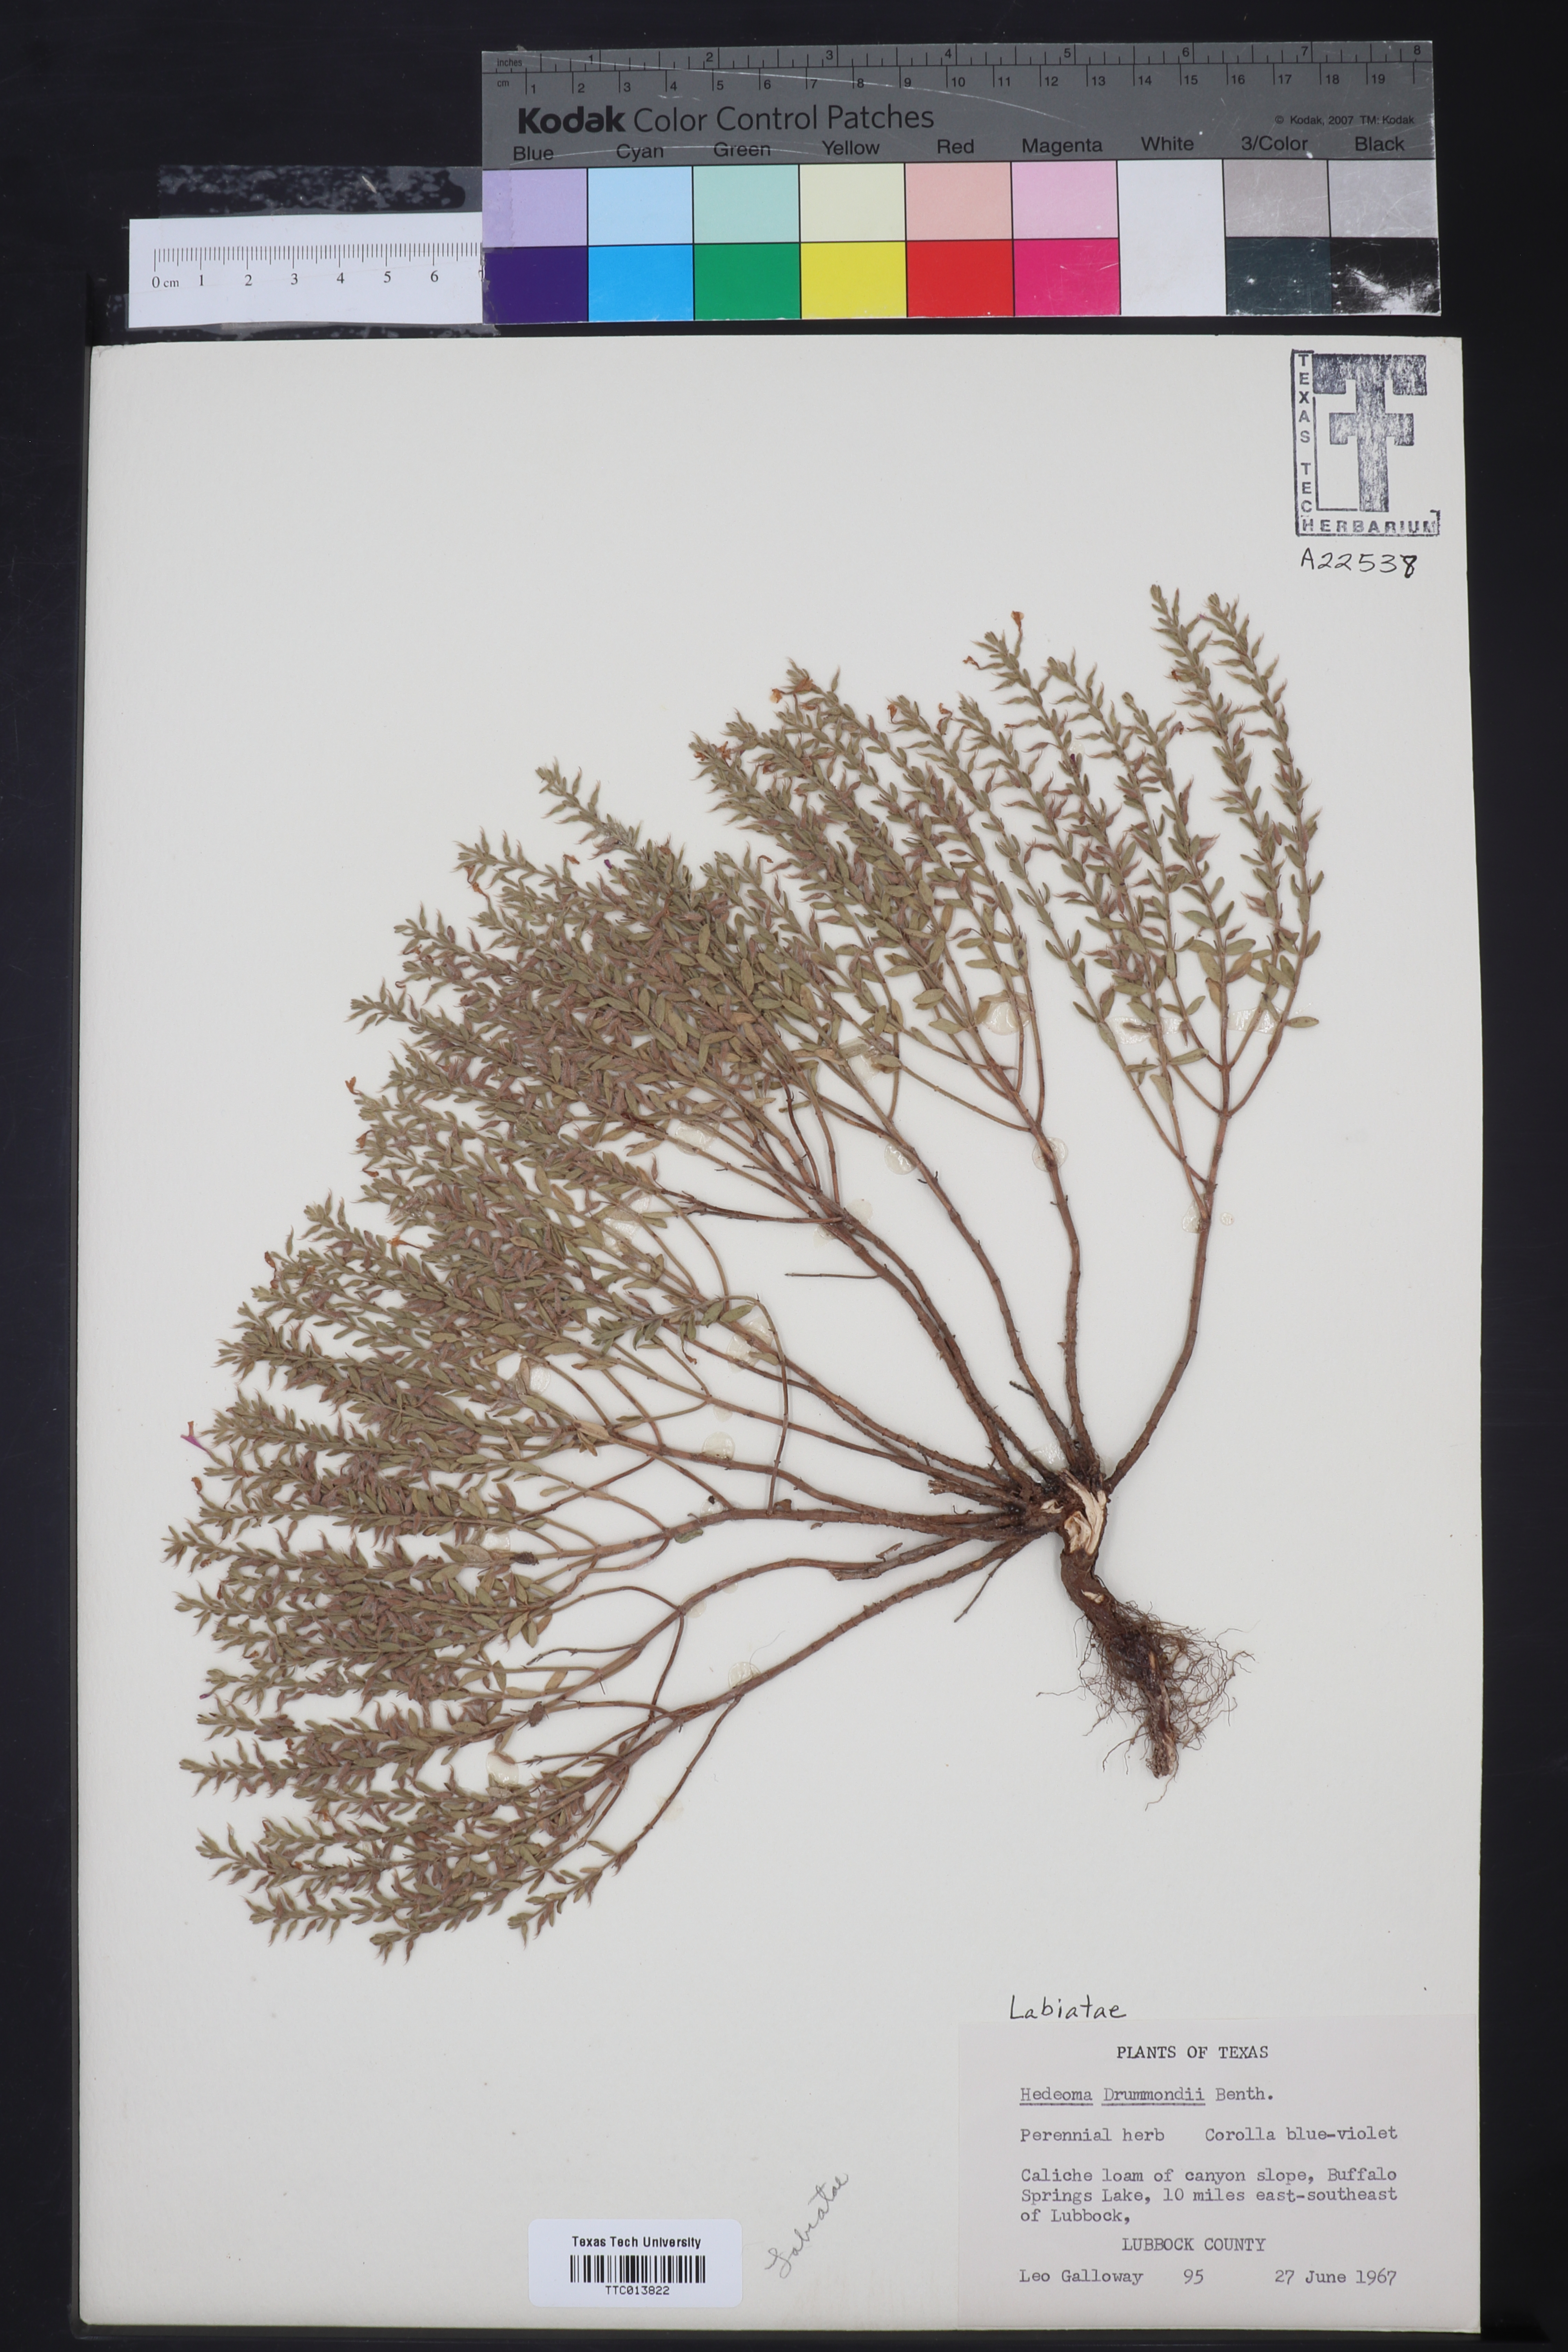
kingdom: Plantae
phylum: Tracheophyta
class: Magnoliopsida
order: Lamiales
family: Lamiaceae
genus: Hedeoma
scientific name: Hedeoma drummondii
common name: New mexico pennyroyal
